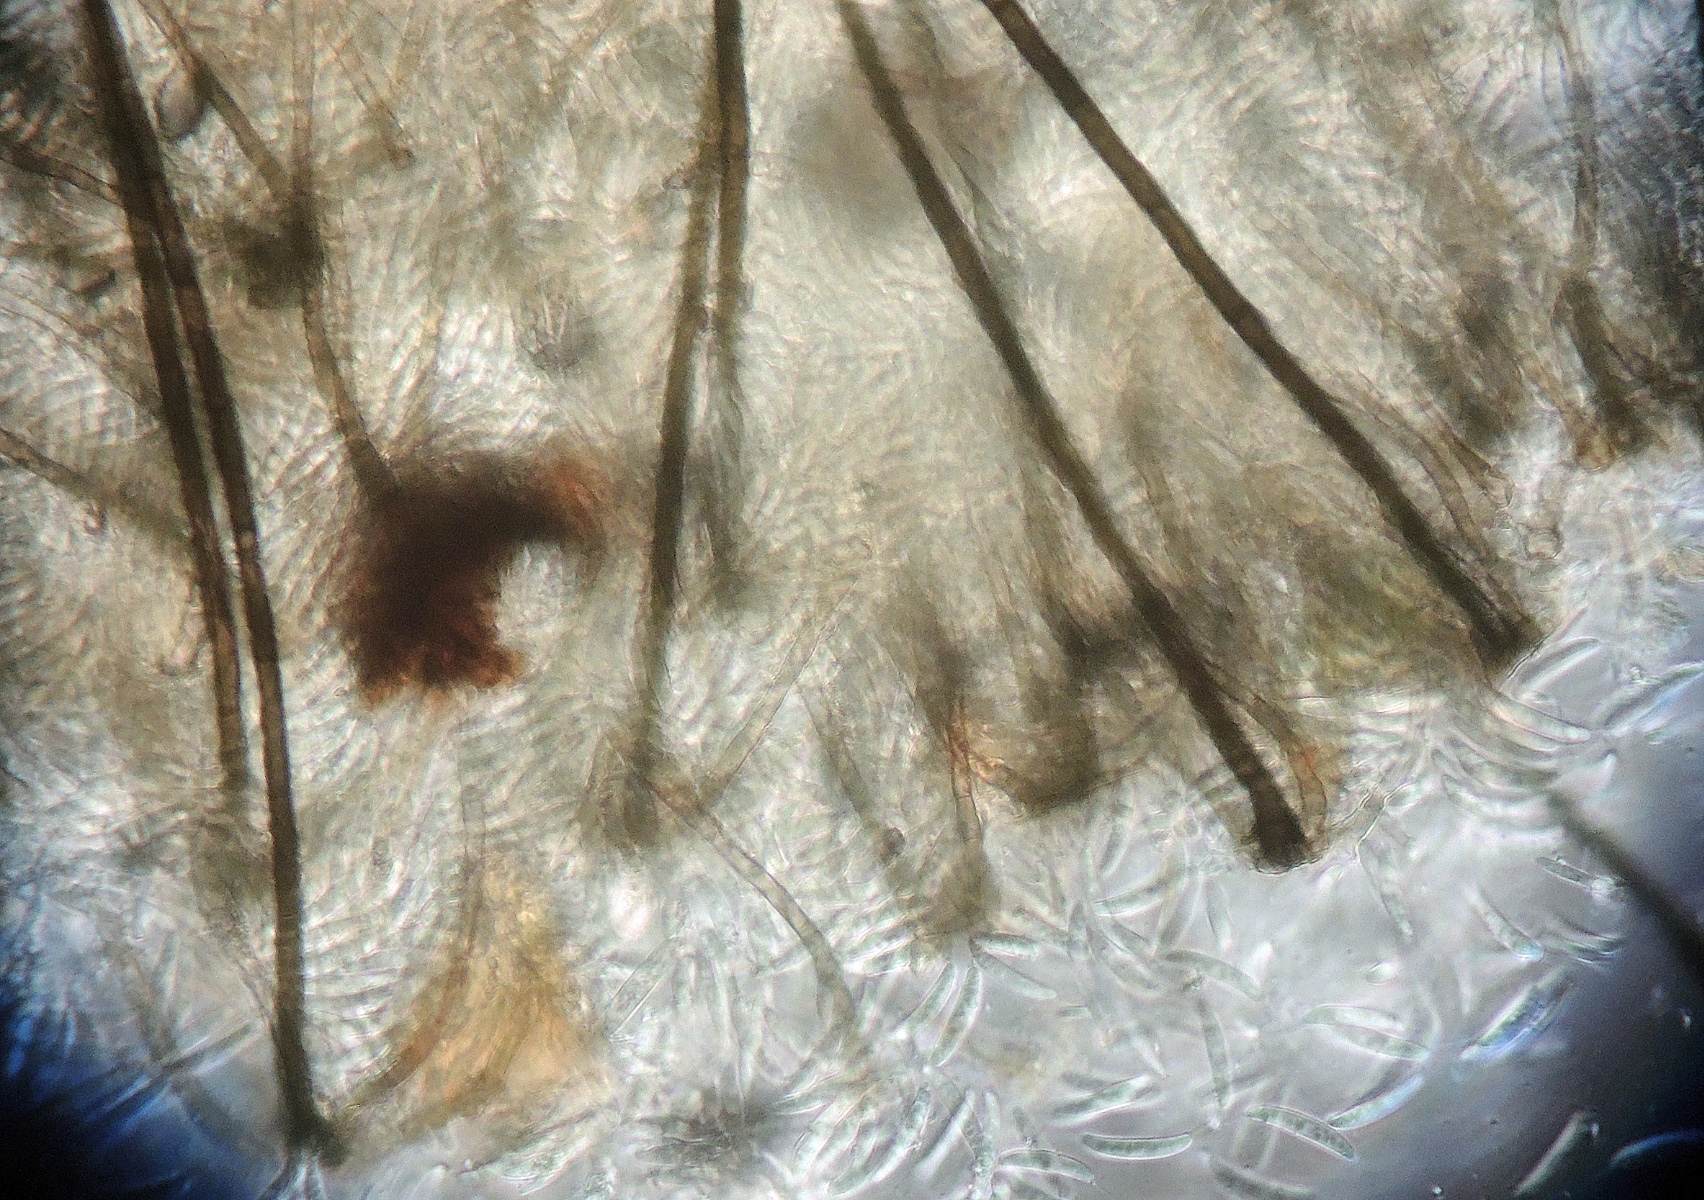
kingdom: Fungi
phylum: Ascomycota
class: Sordariomycetes
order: Chaetosphaeriales
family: Chaetosphaeriaceae
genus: Menispora
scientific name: Menispora britannica
